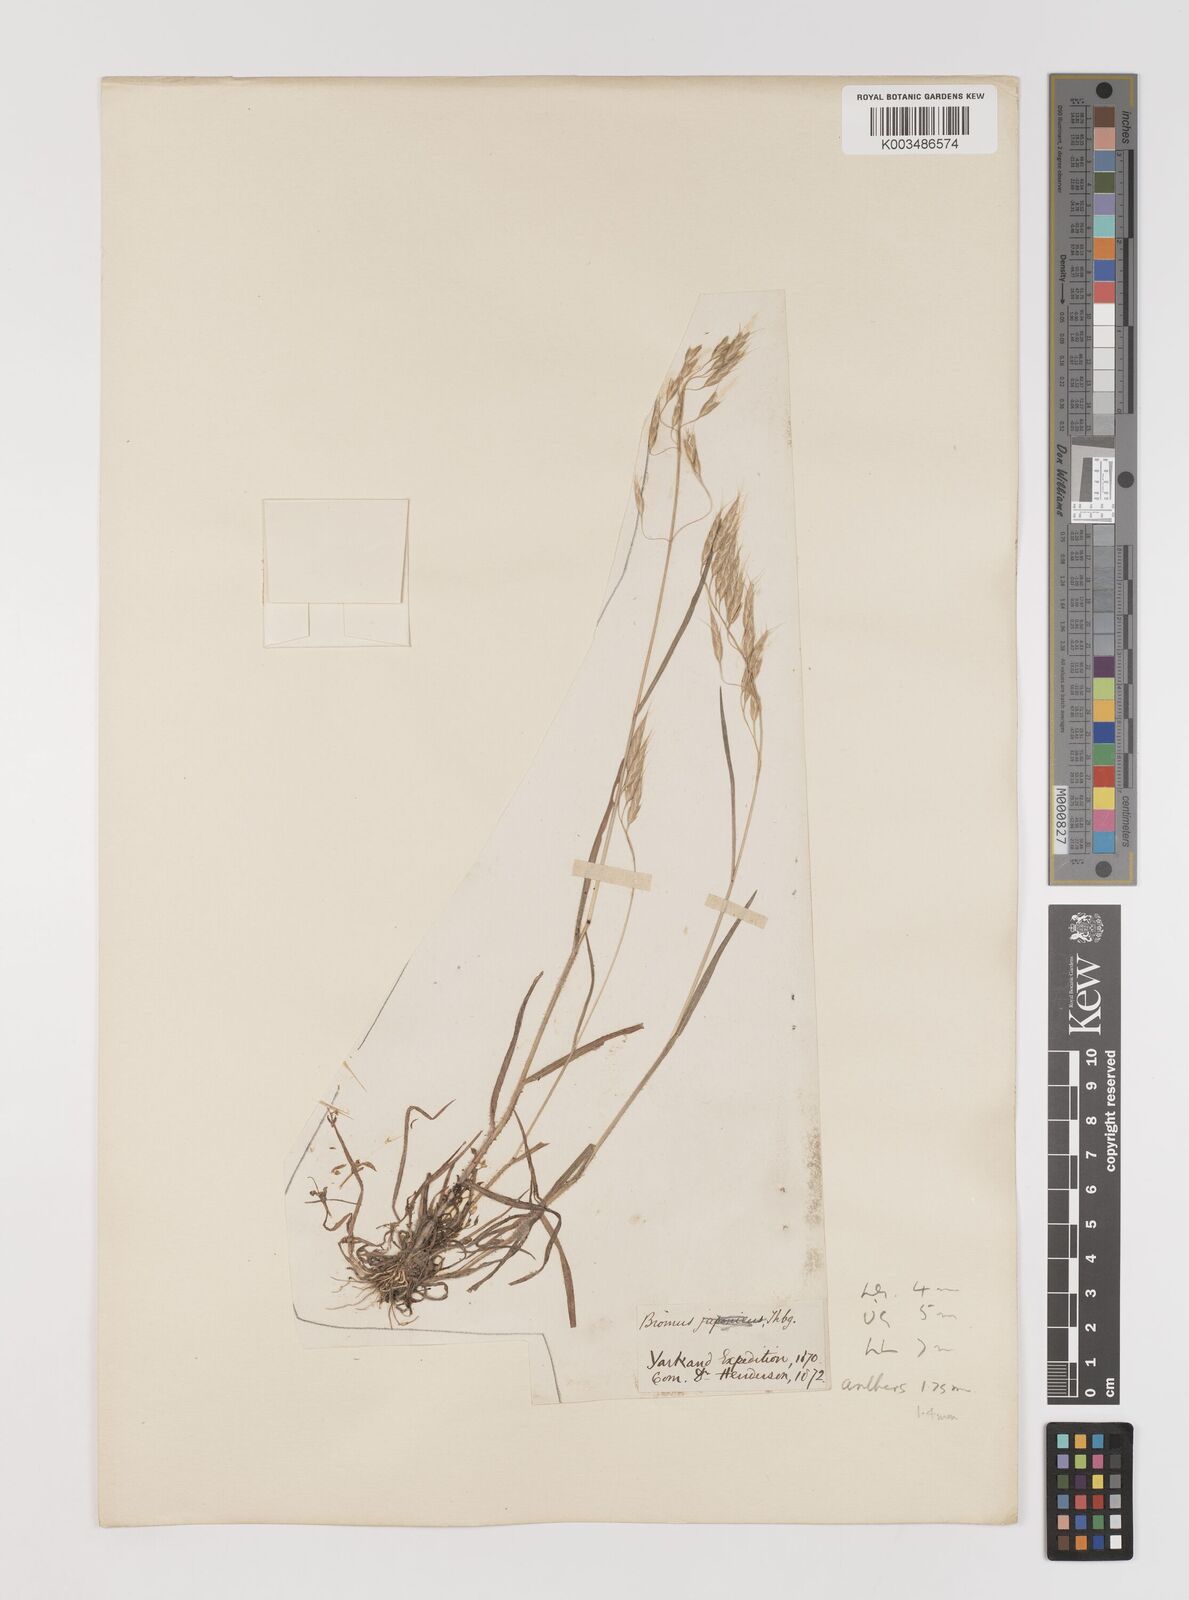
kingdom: Plantae
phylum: Tracheophyta
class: Liliopsida
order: Poales
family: Poaceae
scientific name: Poaceae
